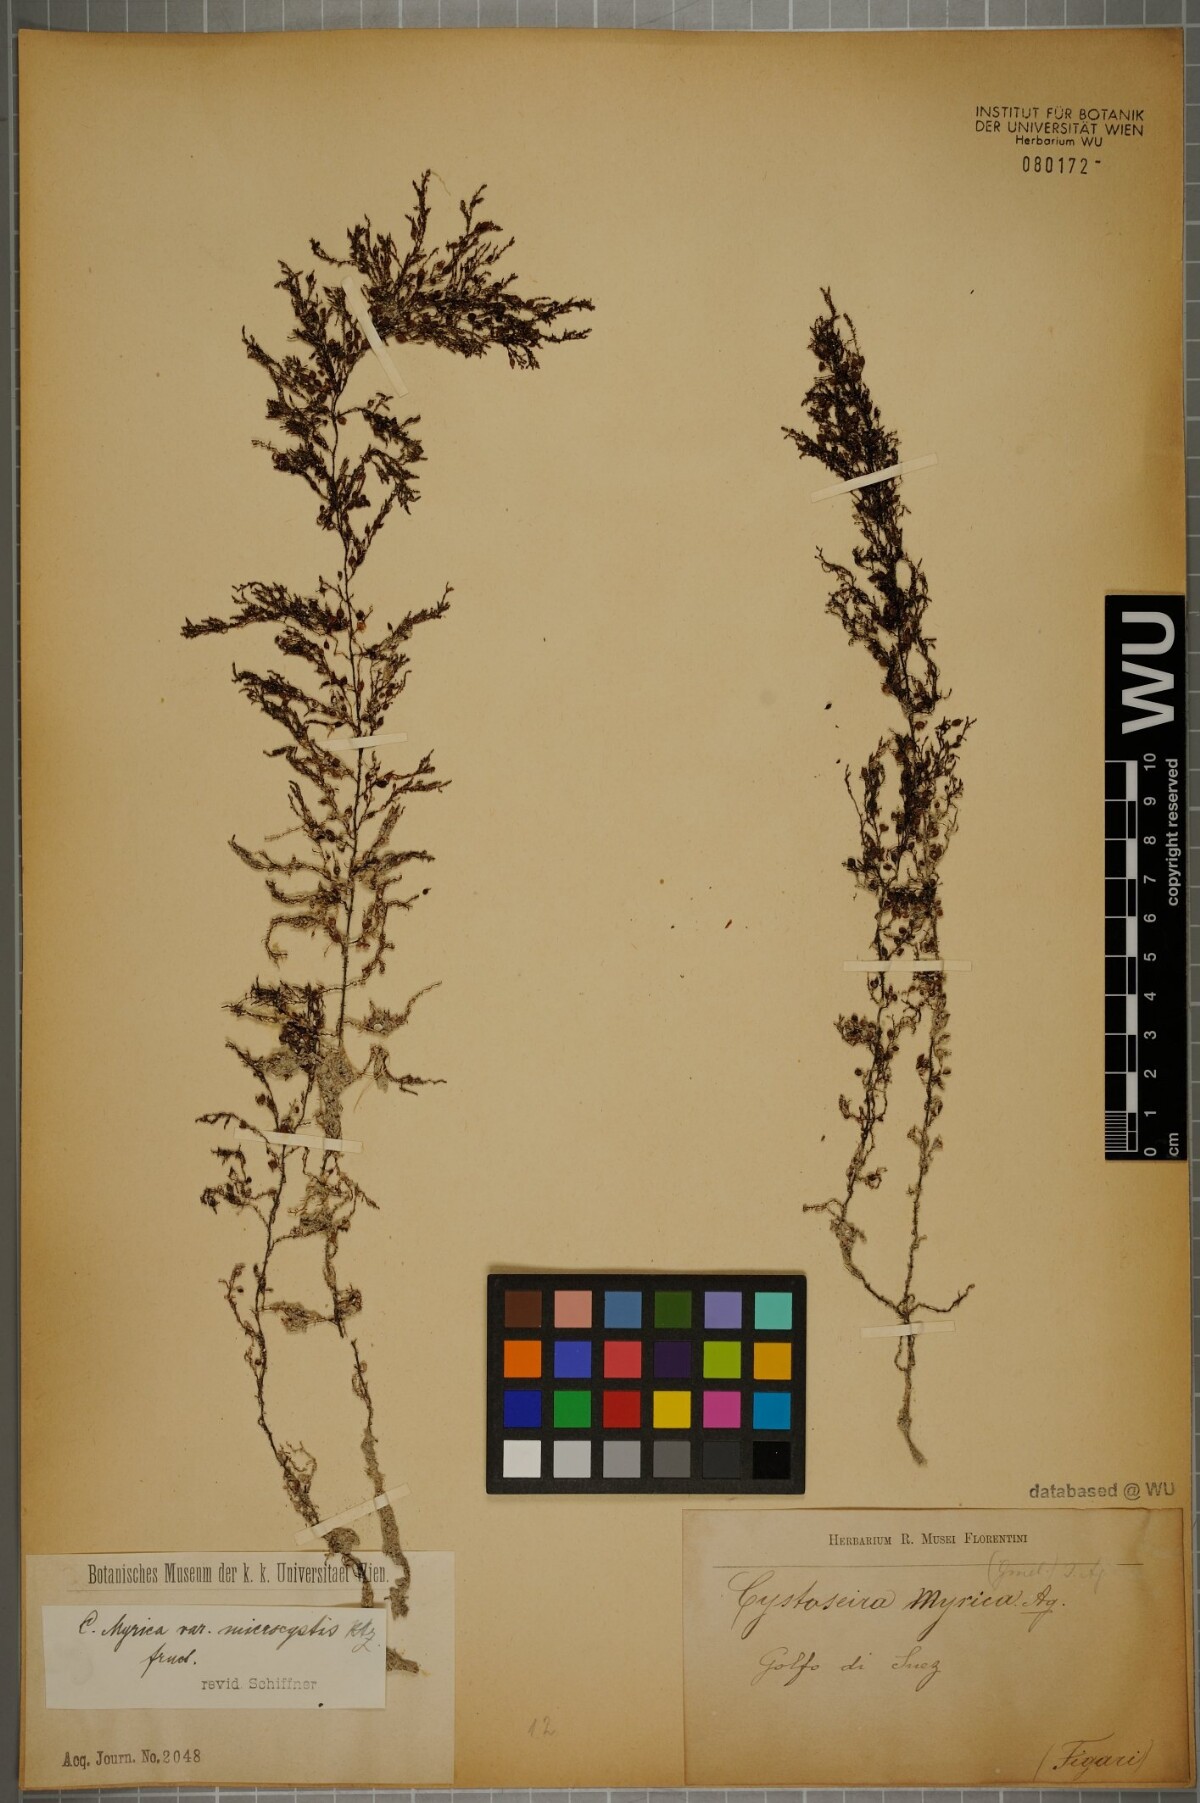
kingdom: Chromista
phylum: Ochrophyta
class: Phaeophyceae
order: Fucales
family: Sargassaceae
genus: Polycladia
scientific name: Polycladia myrica
